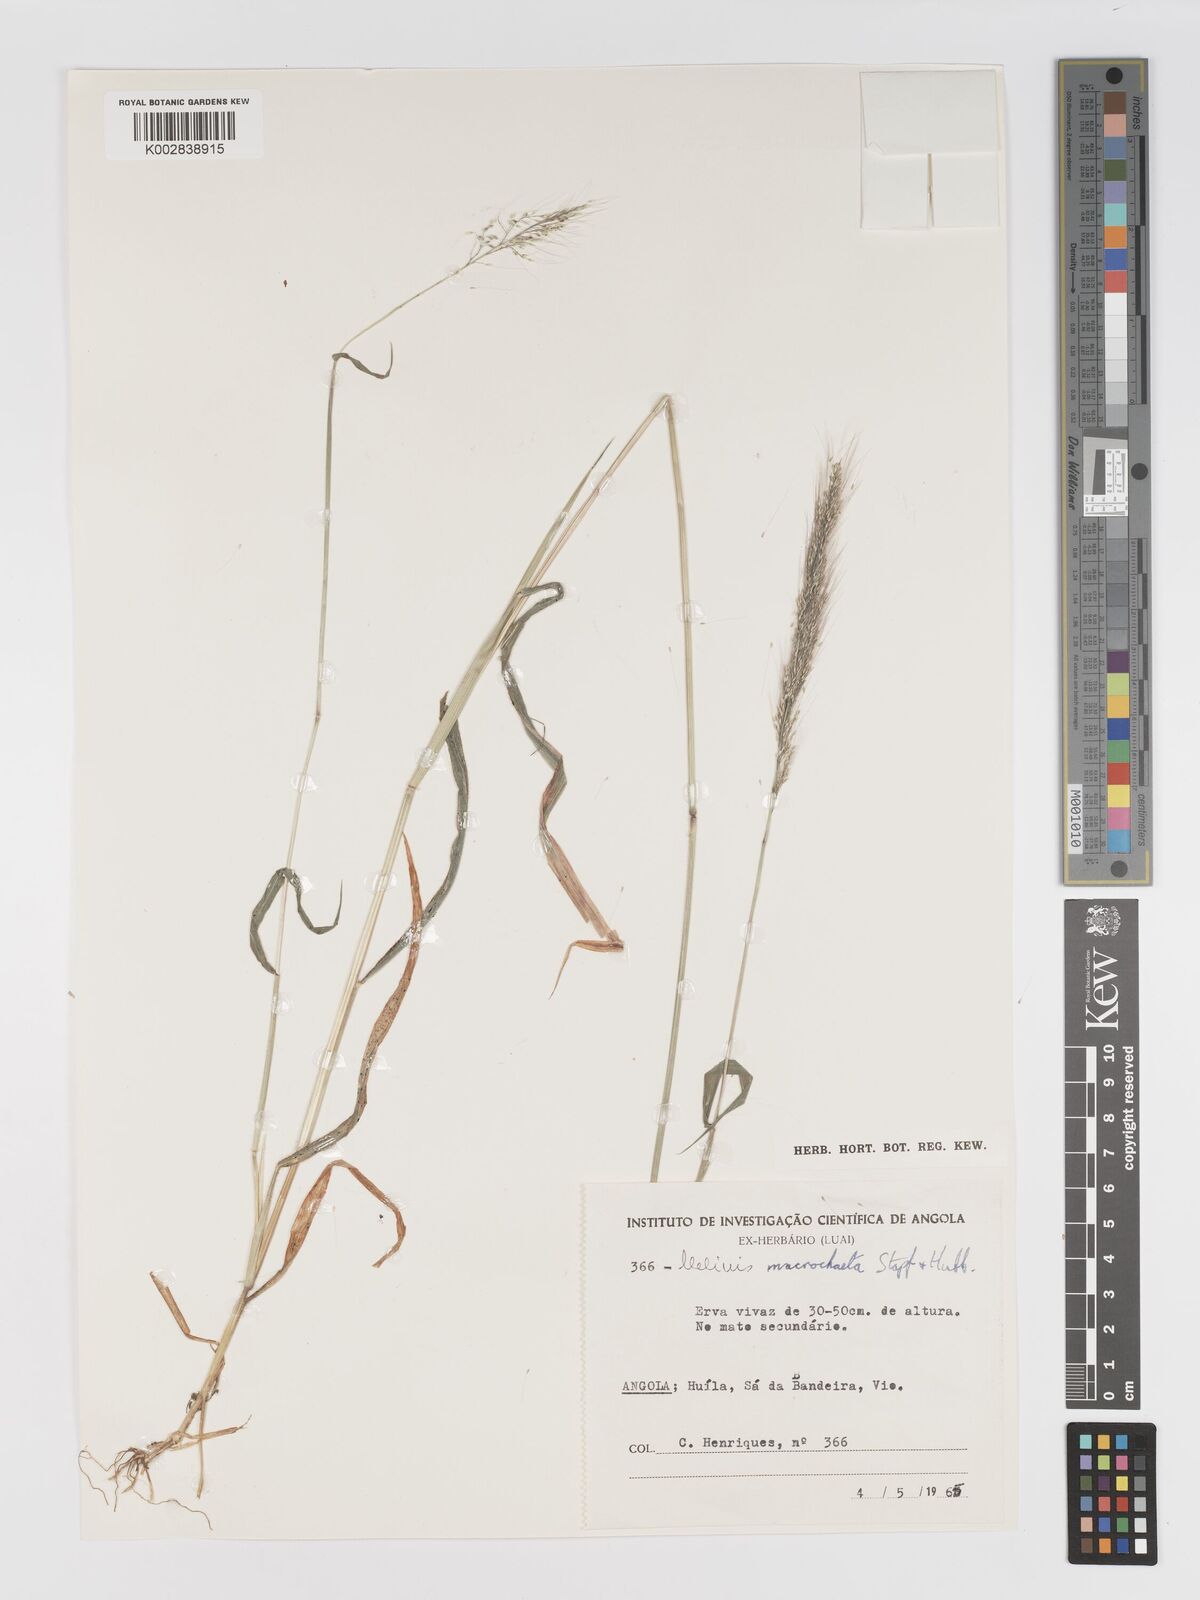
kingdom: Plantae
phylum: Tracheophyta
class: Liliopsida
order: Poales
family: Poaceae
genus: Melinis
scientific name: Melinis macrochaeta
